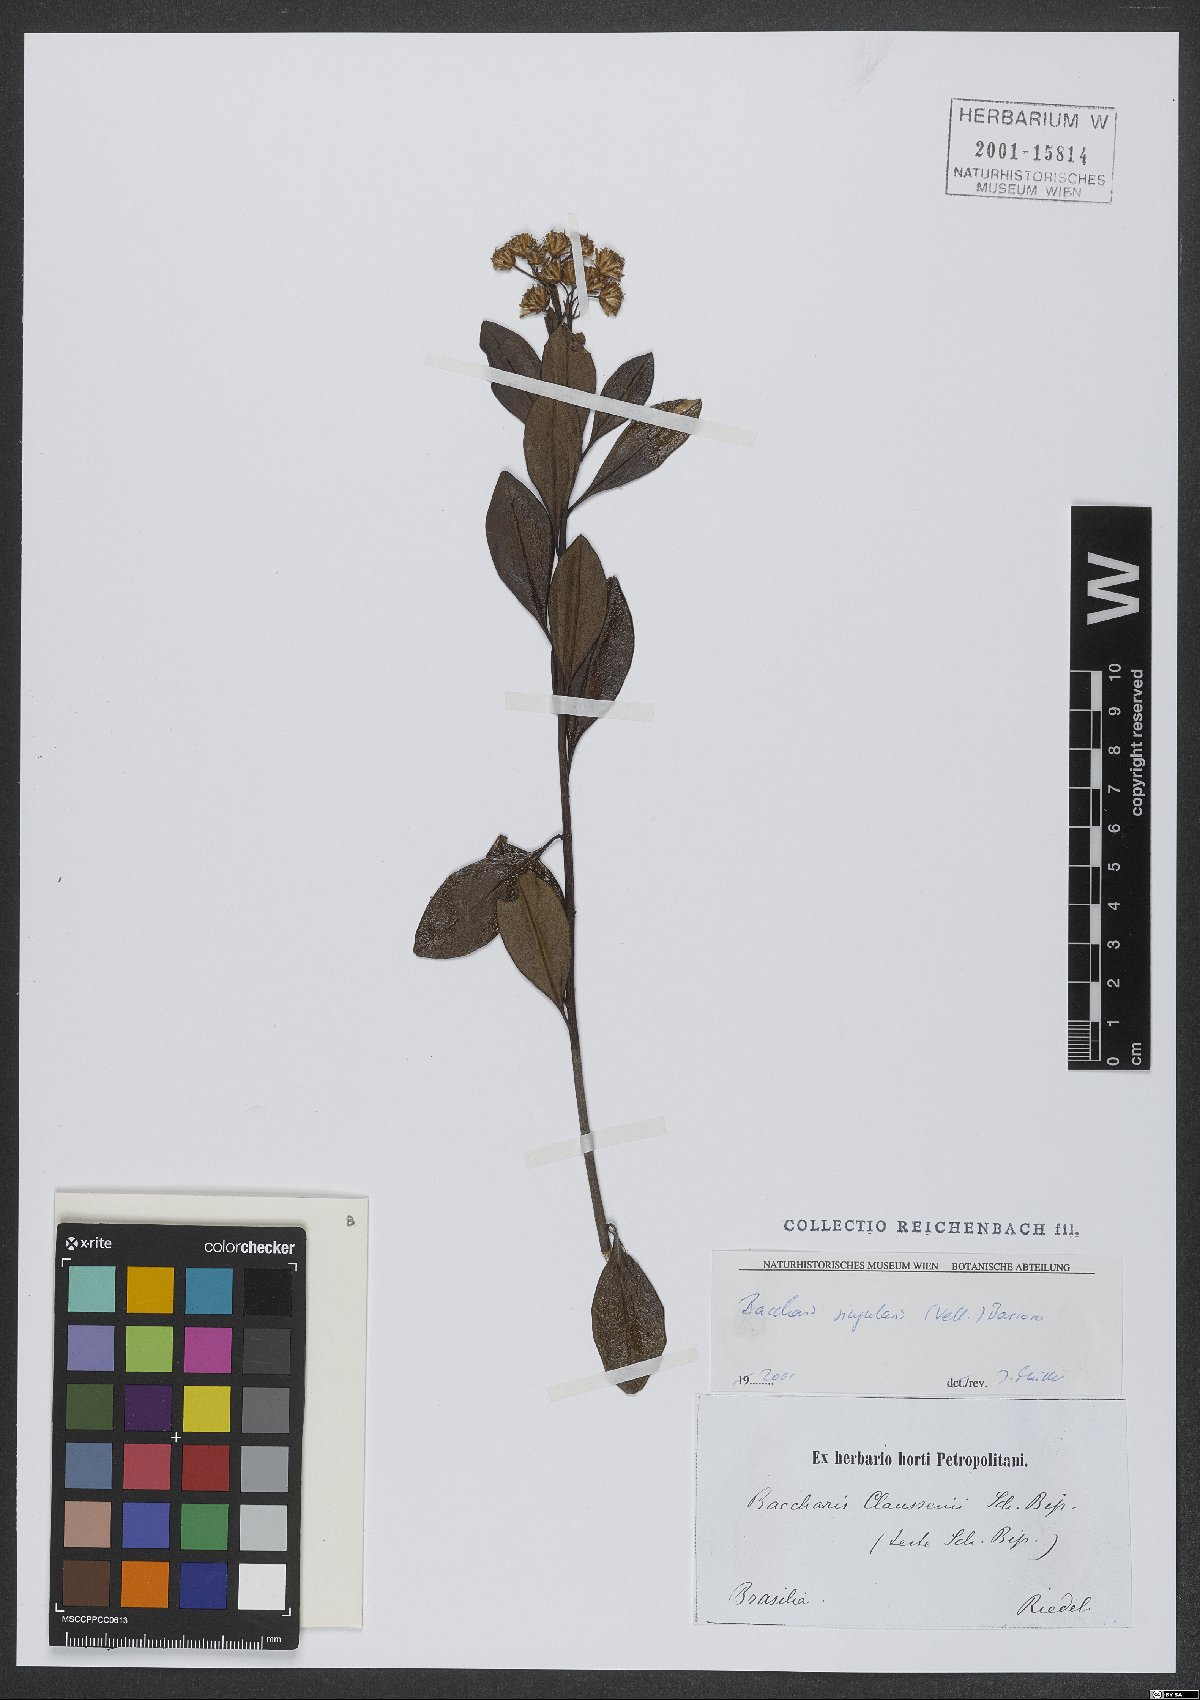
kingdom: Plantae
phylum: Tracheophyta
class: Magnoliopsida
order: Asterales
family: Asteraceae
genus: Baccharis
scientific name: Baccharis singularis
